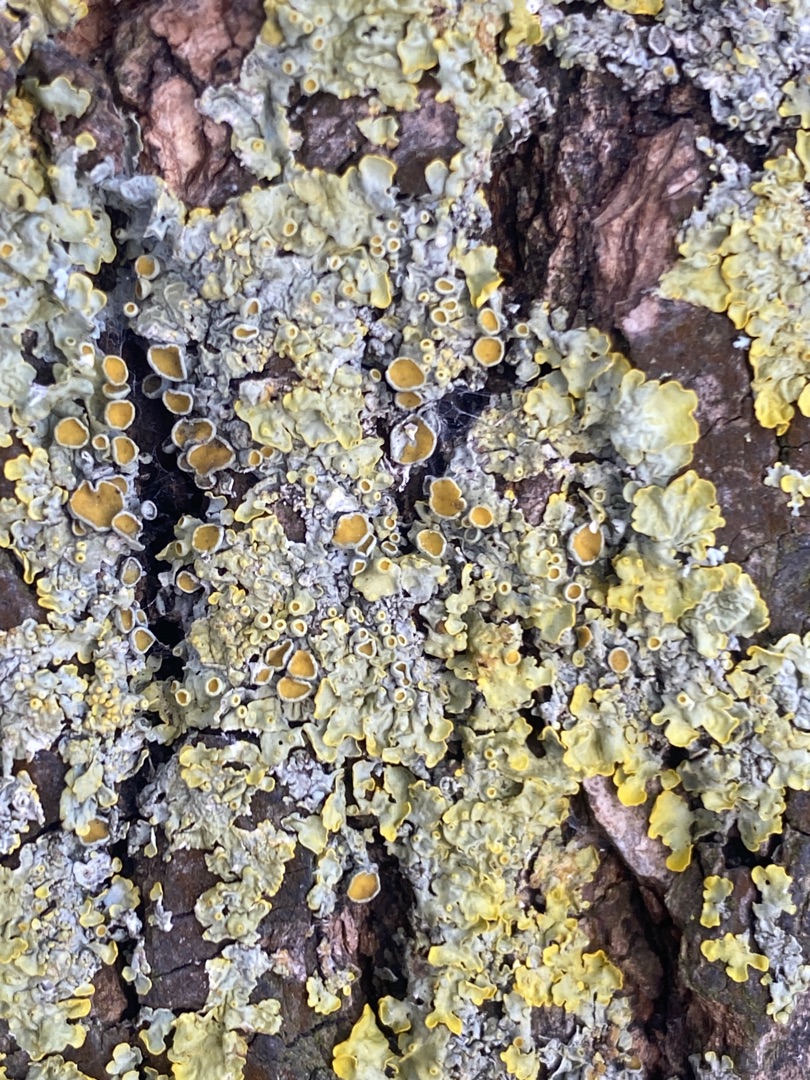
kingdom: Fungi
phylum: Ascomycota
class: Lecanoromycetes
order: Teloschistales
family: Teloschistaceae
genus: Xanthoria
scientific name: Xanthoria parietina
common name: Almindelig væggelav
